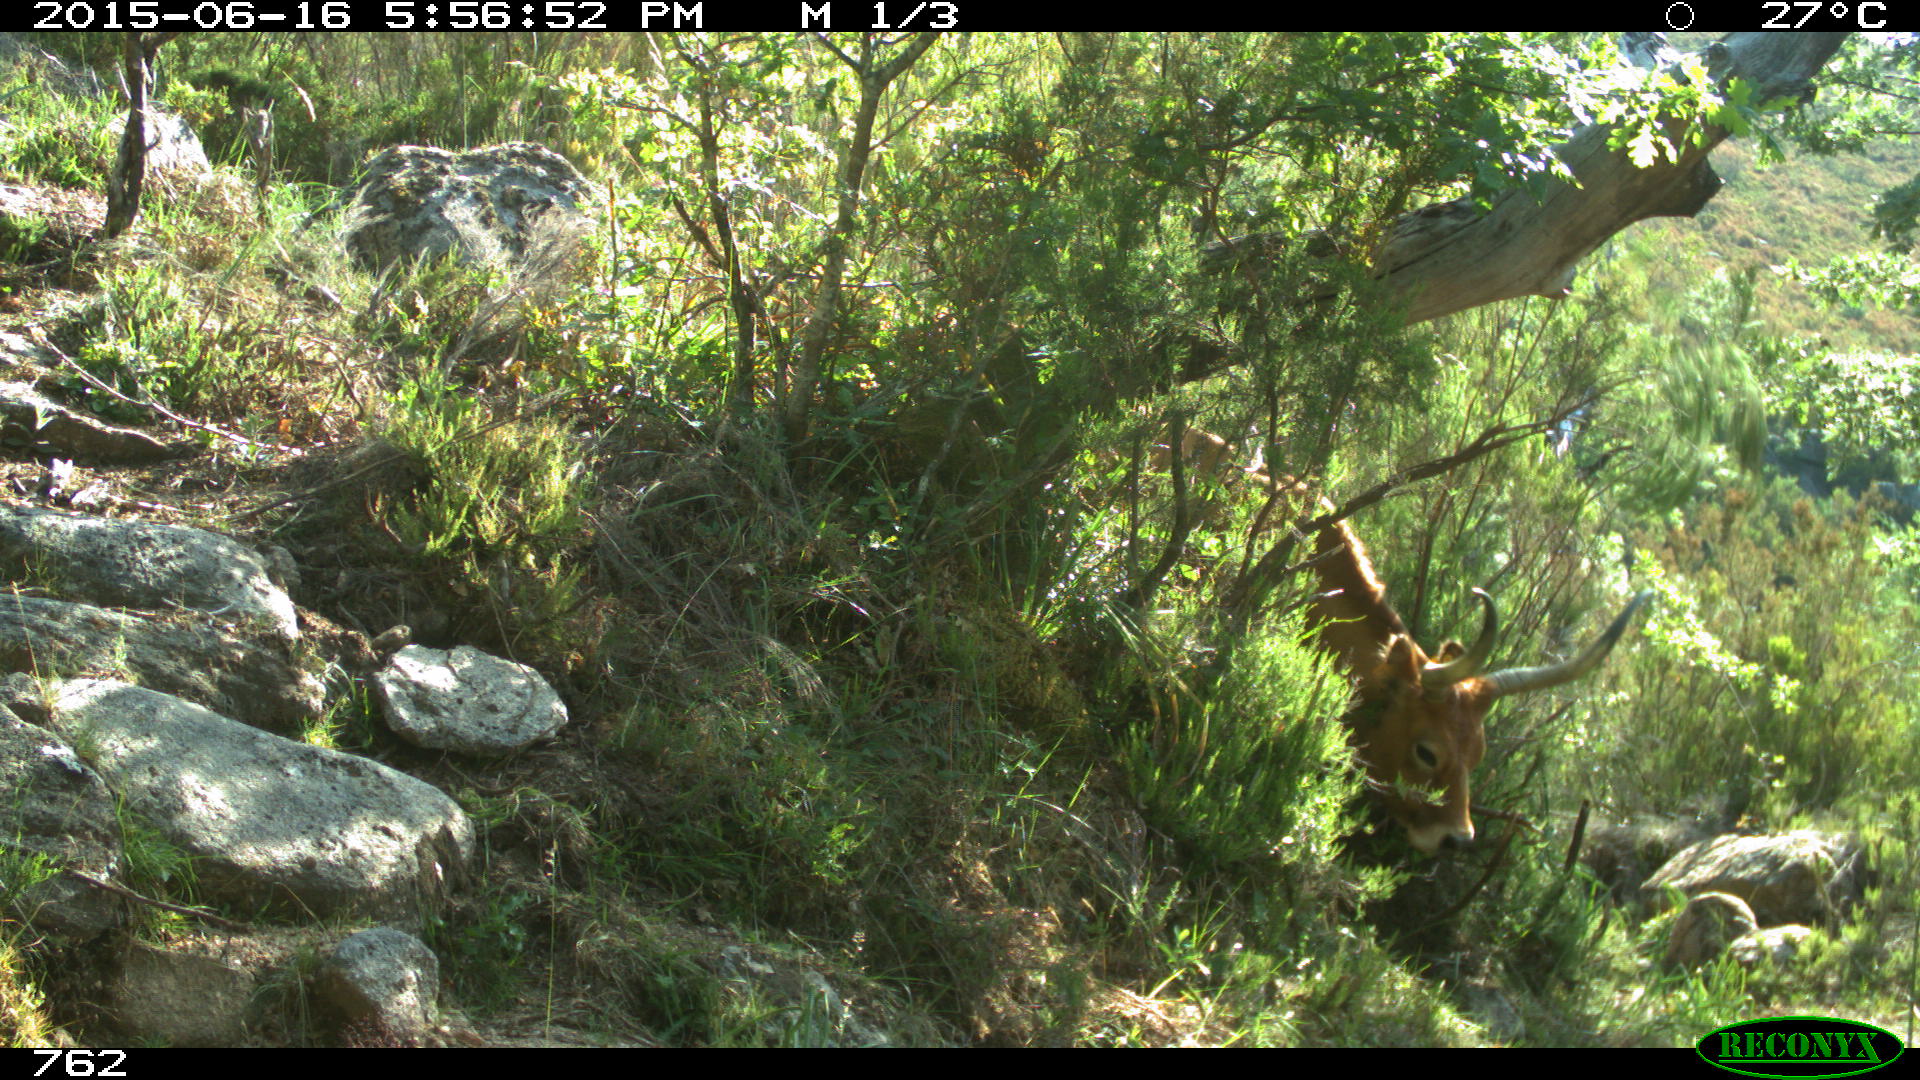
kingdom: Animalia
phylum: Chordata
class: Mammalia
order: Artiodactyla
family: Bovidae
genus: Bos
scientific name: Bos taurus
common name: Domesticated cattle
